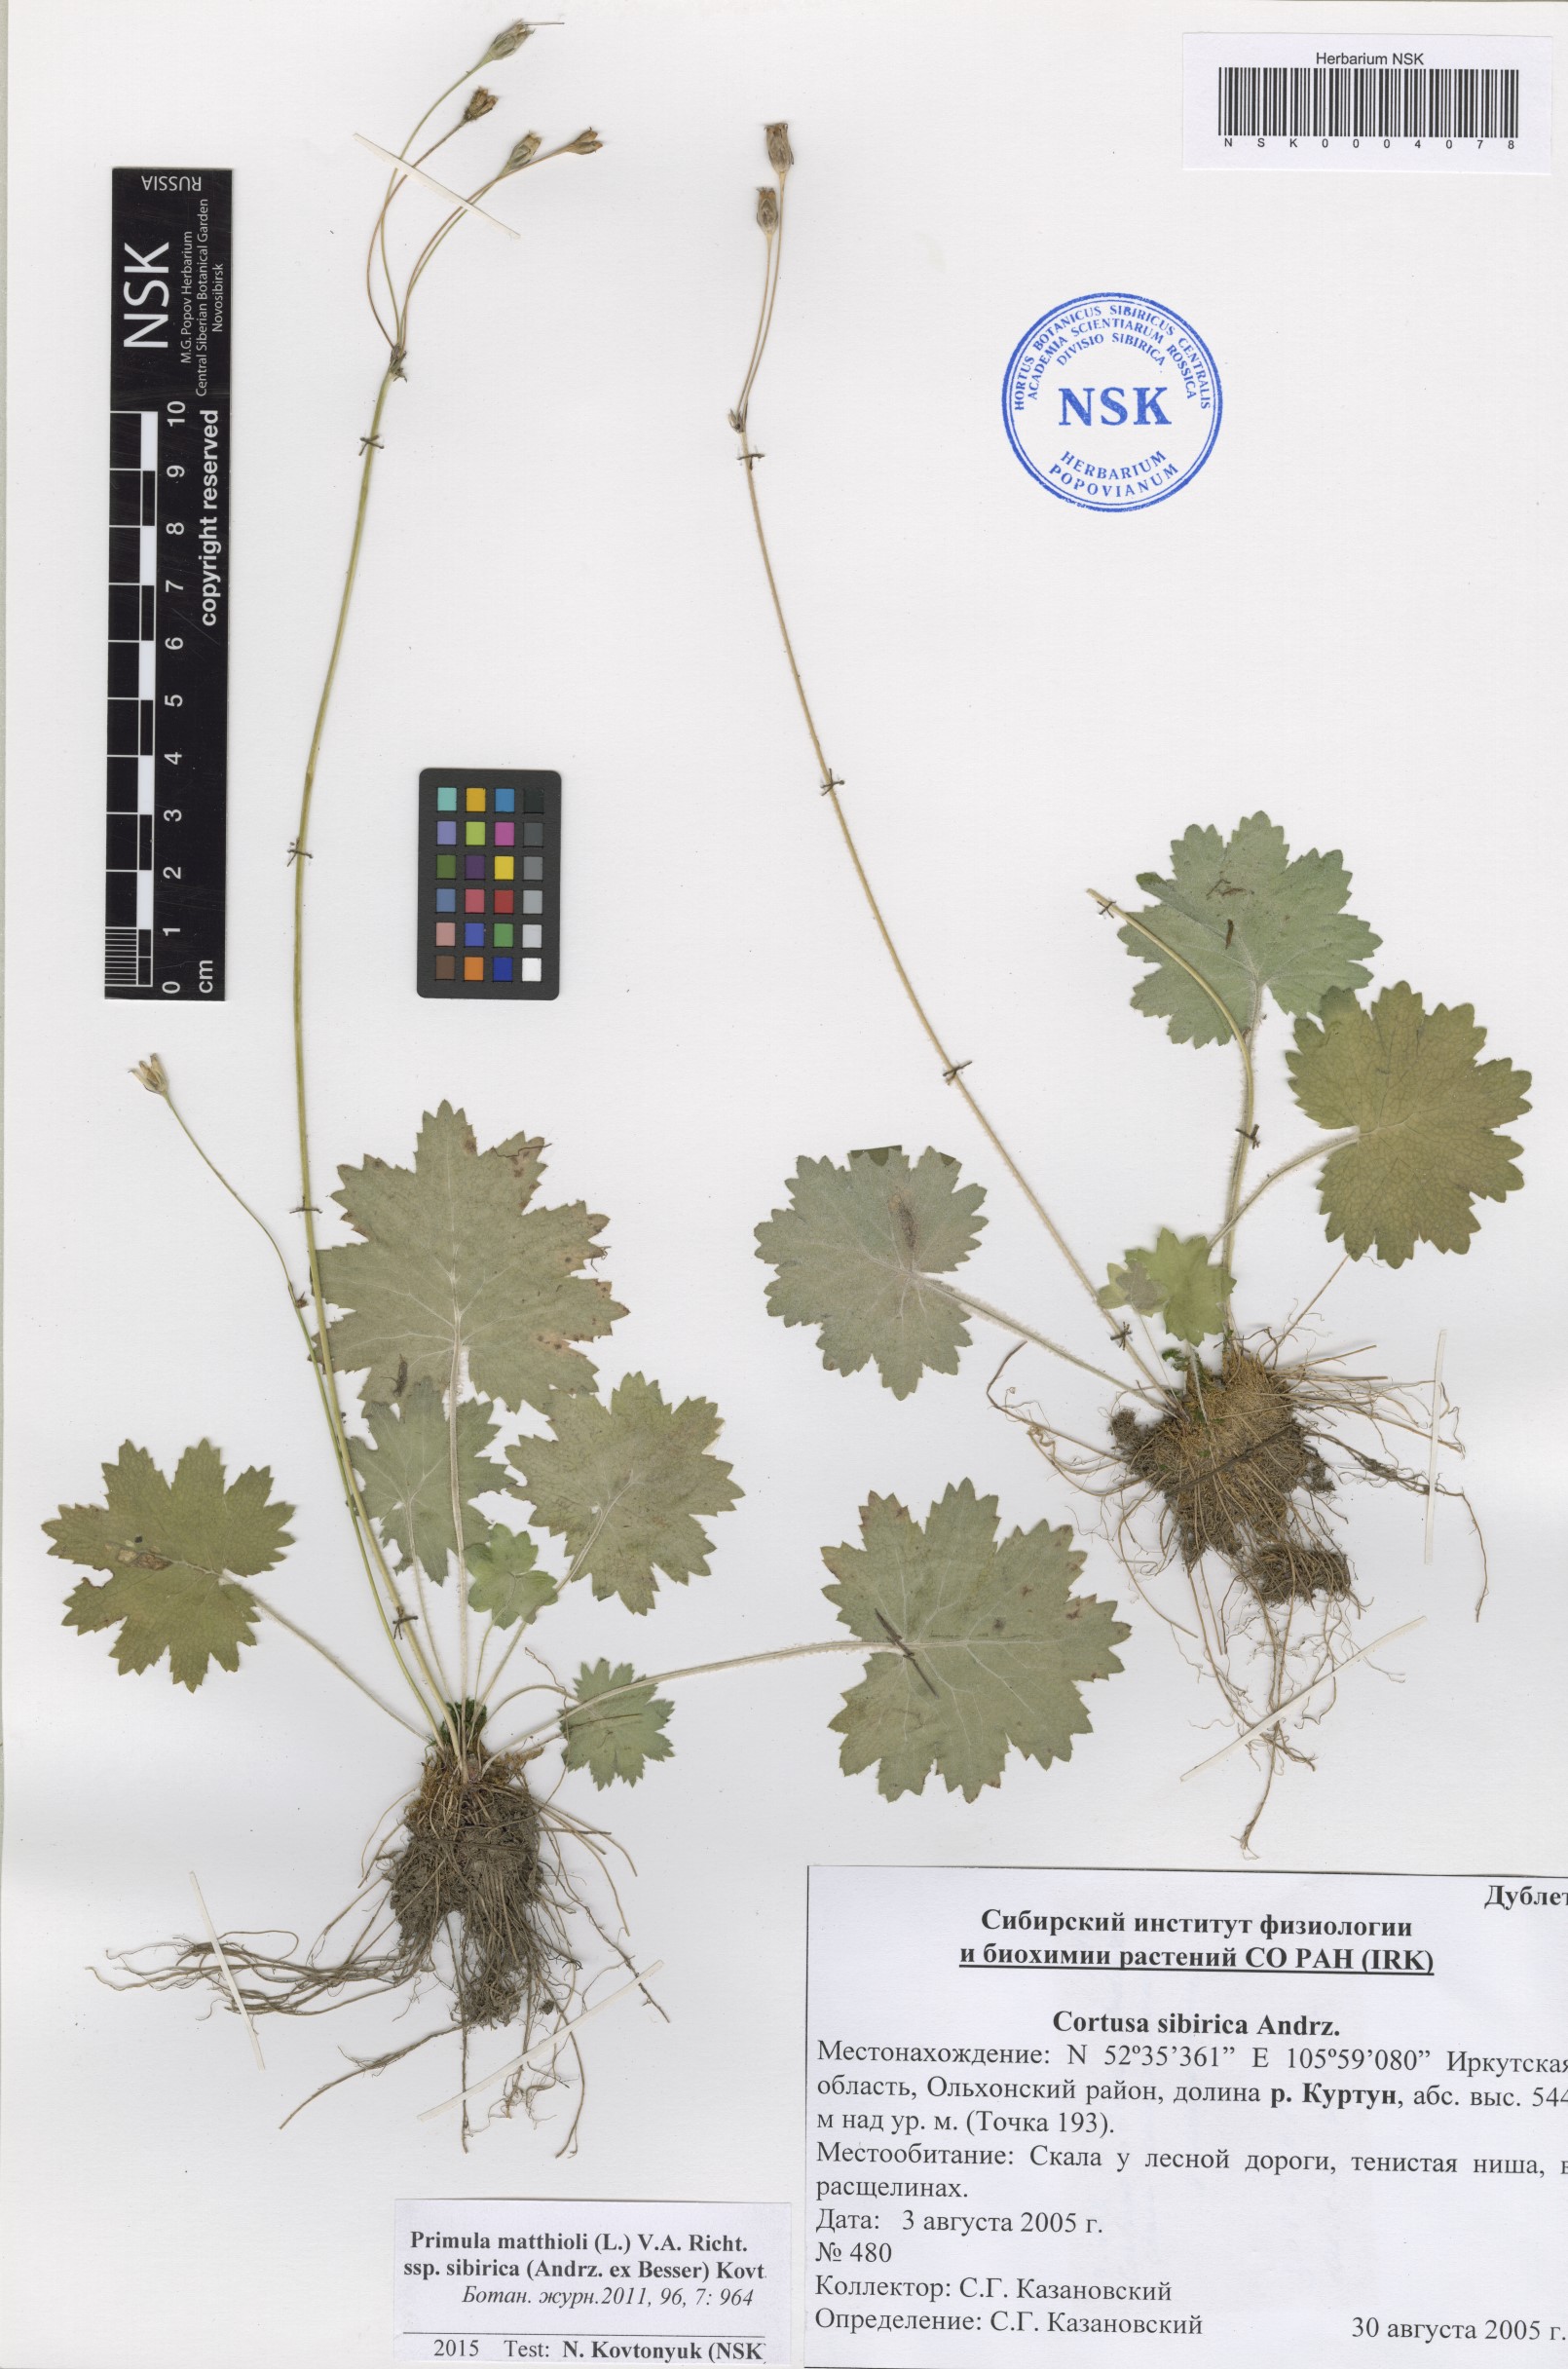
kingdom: Plantae
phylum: Tracheophyta
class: Magnoliopsida
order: Ericales
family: Primulaceae
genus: Primula
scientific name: Primula matthioli
